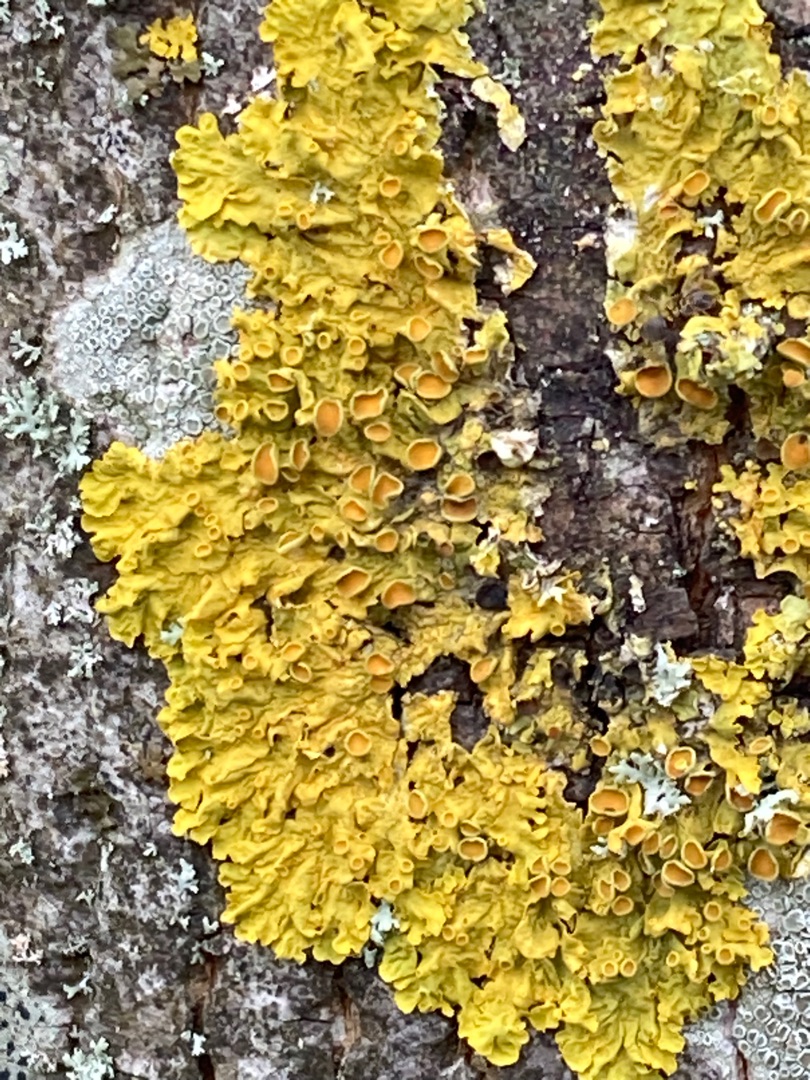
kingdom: Fungi
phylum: Ascomycota
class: Lecanoromycetes
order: Teloschistales
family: Teloschistaceae
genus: Xanthoria
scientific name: Xanthoria parietina
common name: Almindelig væggelav
